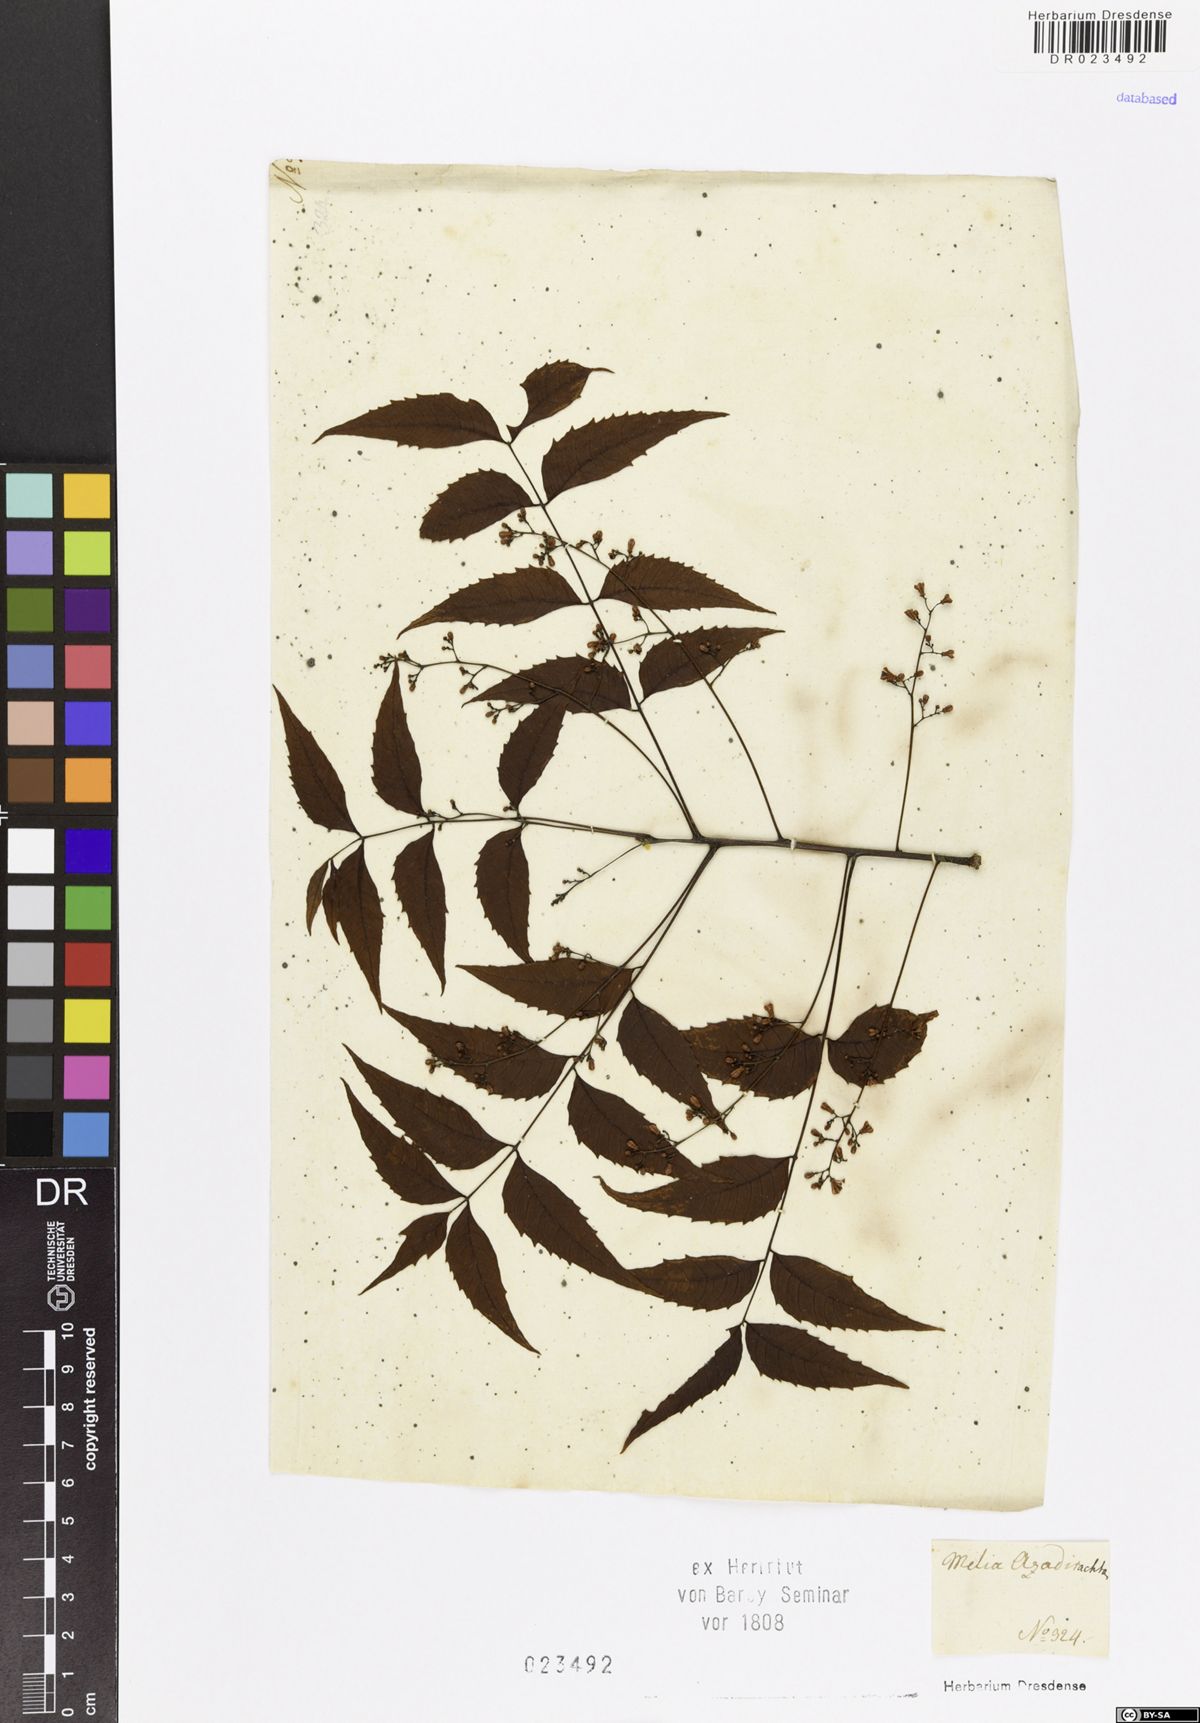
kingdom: Plantae
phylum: Tracheophyta
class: Magnoliopsida
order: Sapindales
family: Meliaceae
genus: Azadirachta
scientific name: Azadirachta indica
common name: Neem
